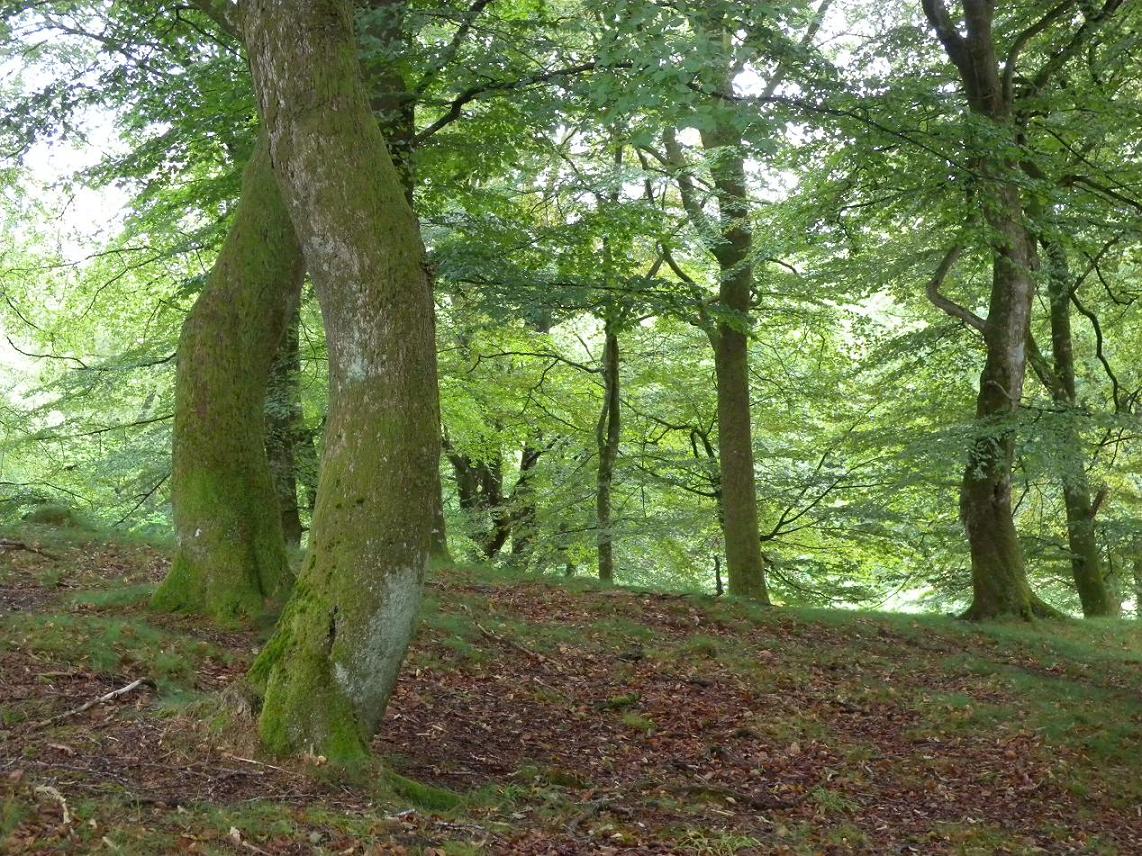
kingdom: Fungi
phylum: Ascomycota
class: Lecanoromycetes
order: Peltigerales
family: Lobariaceae
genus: Lobaria
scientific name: Lobaria pulmonaria
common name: almindelig lungelav
